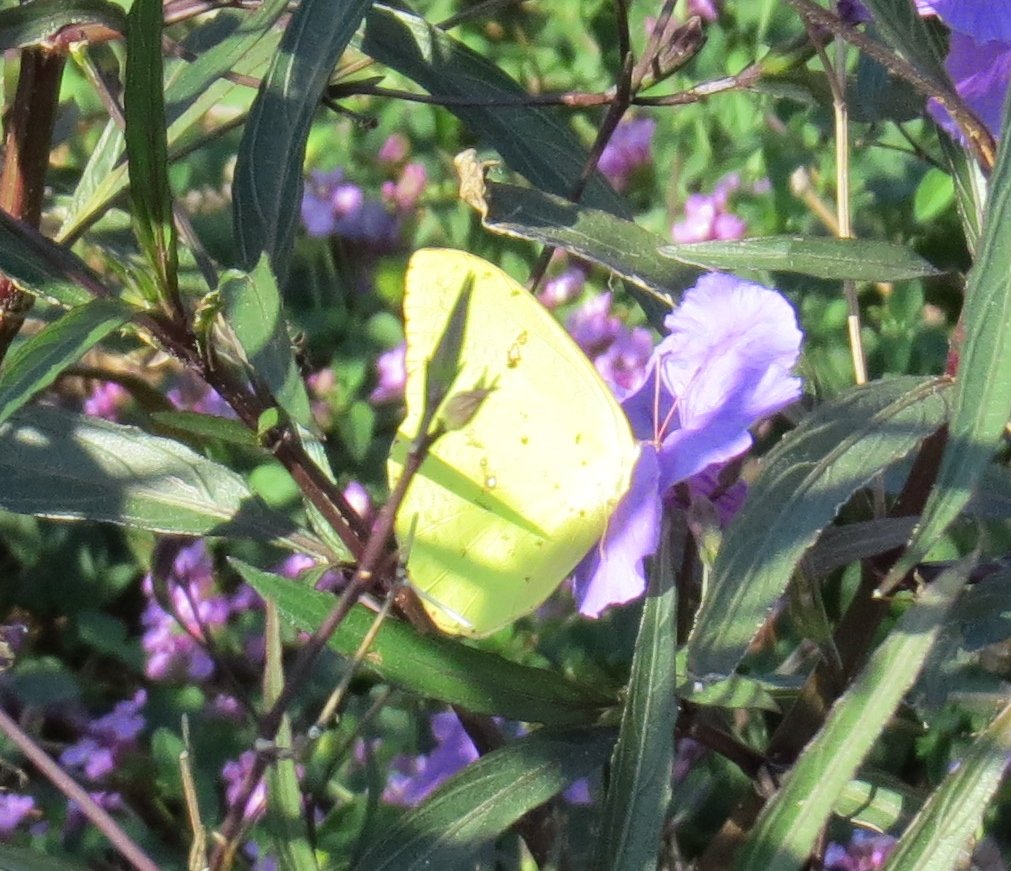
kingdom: Animalia
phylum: Arthropoda
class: Insecta
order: Lepidoptera
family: Pieridae
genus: Phoebis
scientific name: Phoebis sennae
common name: Cloudless Sulphur
